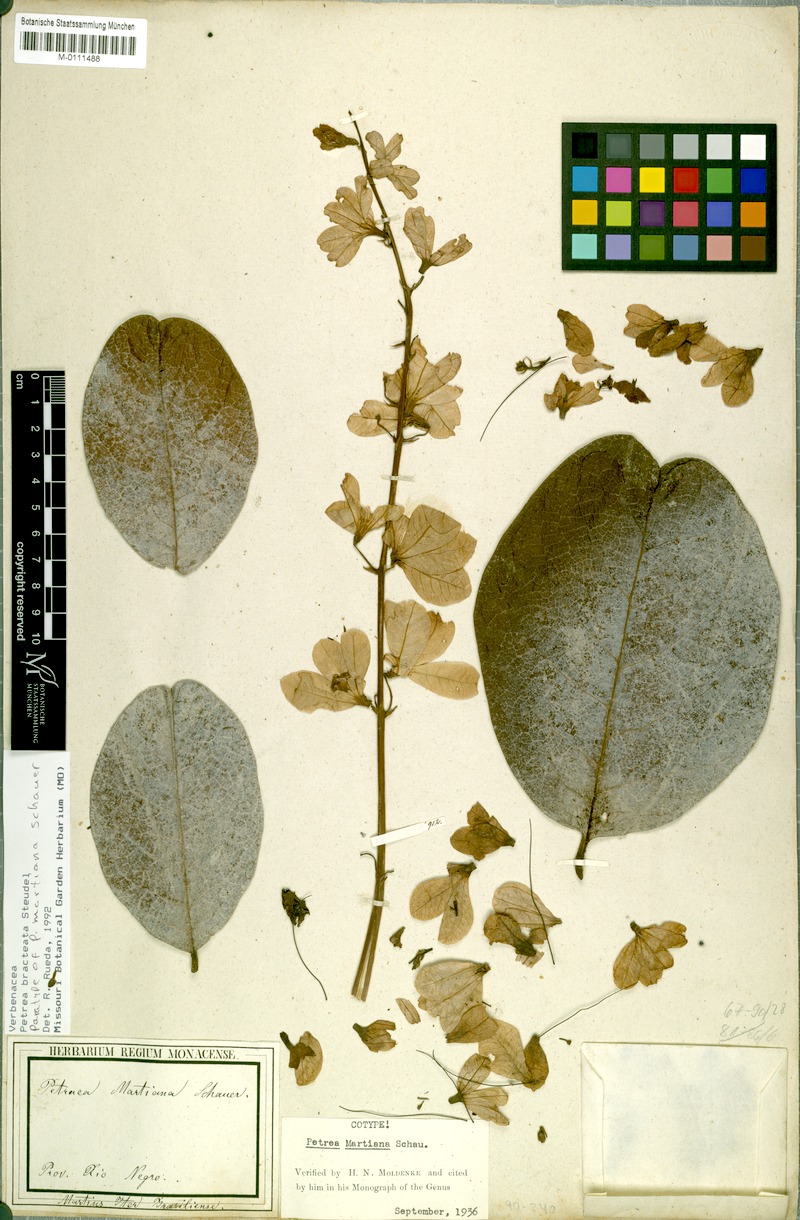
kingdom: Plantae
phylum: Tracheophyta
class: Magnoliopsida
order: Lamiales
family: Verbenaceae
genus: Petrea
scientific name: Petrea bracteata
